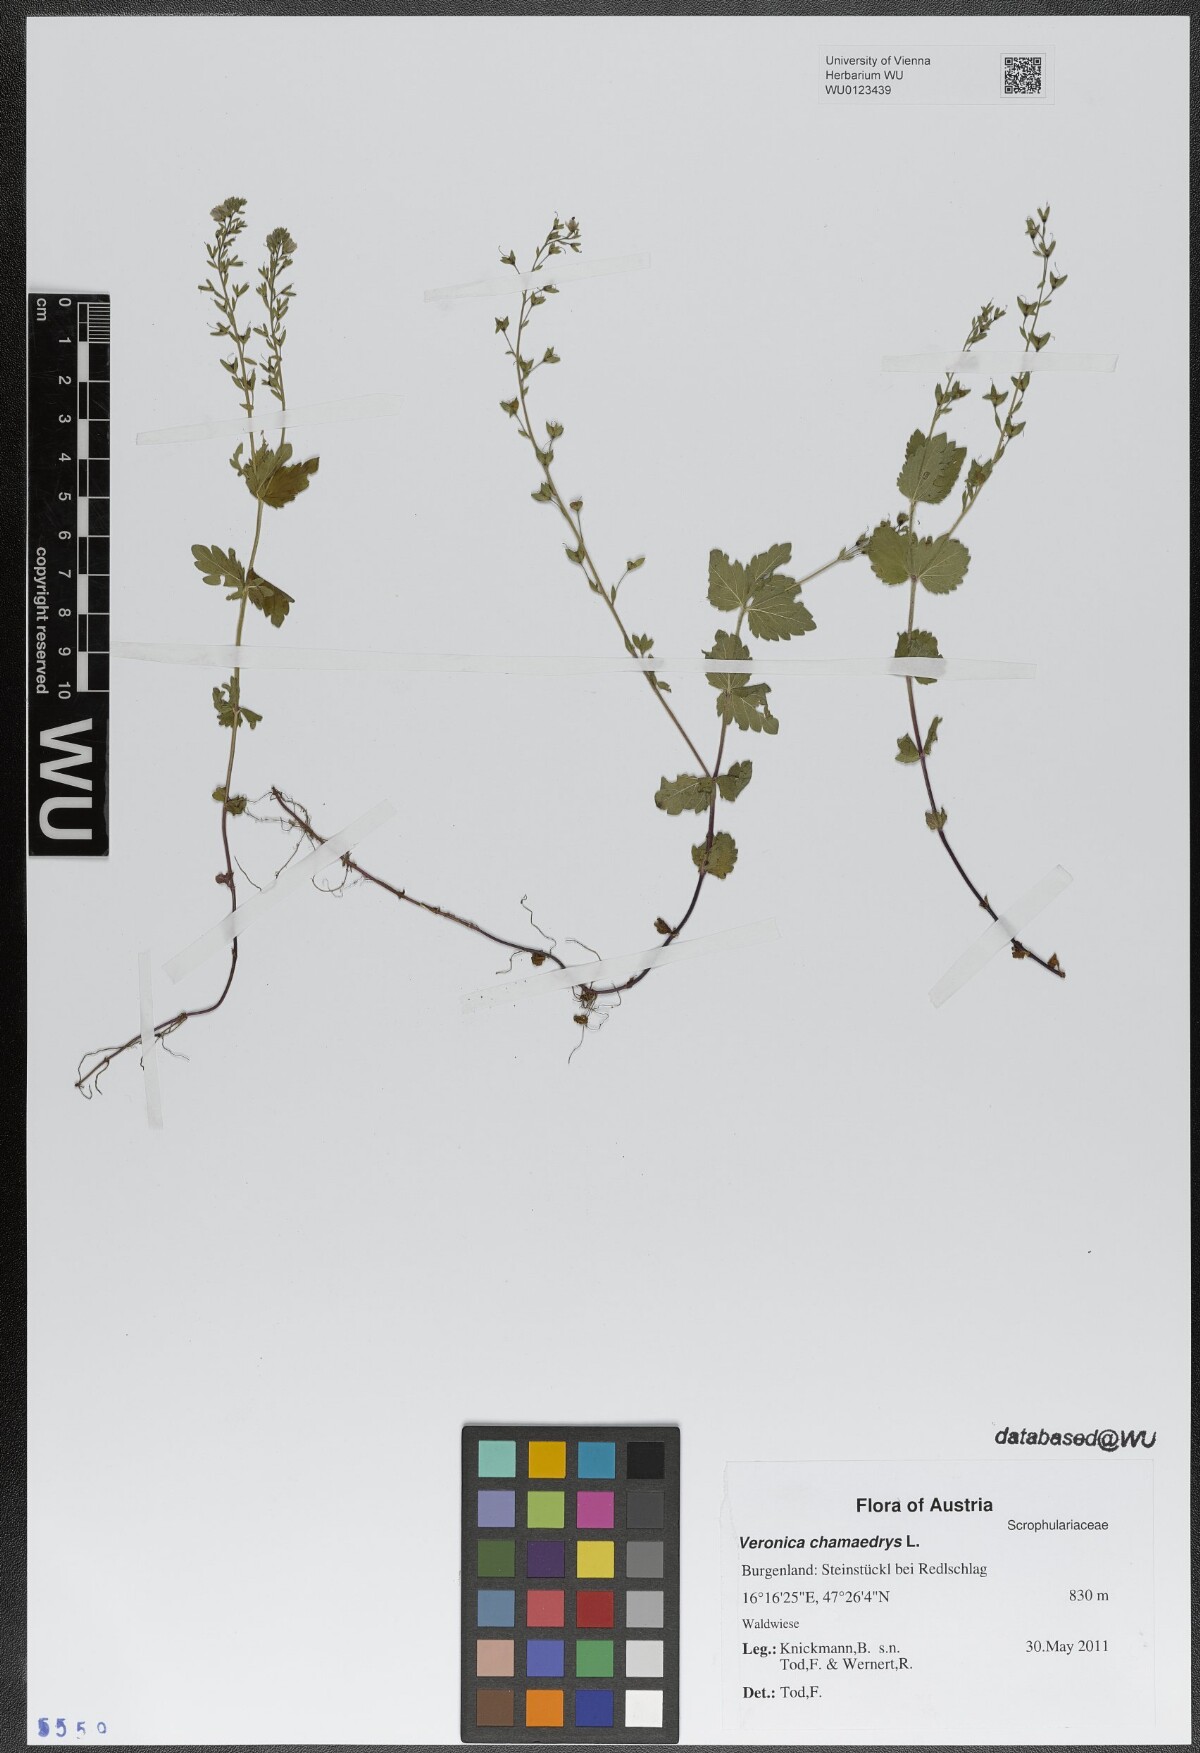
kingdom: Plantae
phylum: Tracheophyta
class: Magnoliopsida
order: Lamiales
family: Plantaginaceae
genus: Veronica
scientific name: Veronica chamaedrys
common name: Germander speedwell
